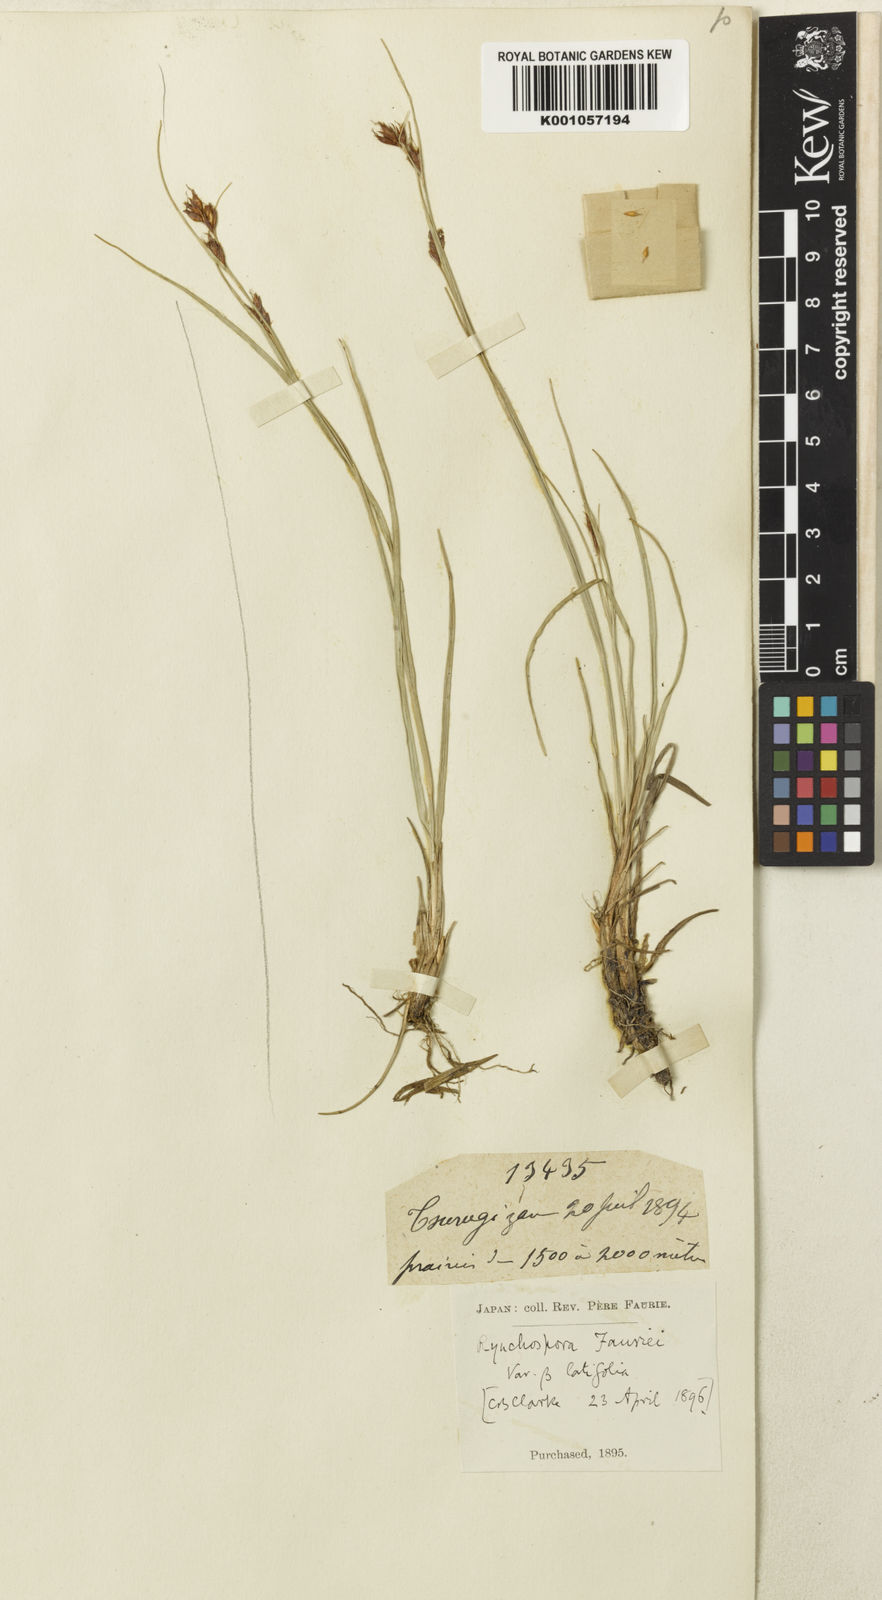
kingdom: Plantae
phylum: Tracheophyta
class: Liliopsida
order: Poales
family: Cyperaceae
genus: Rhynchospora
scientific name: Rhynchospora
